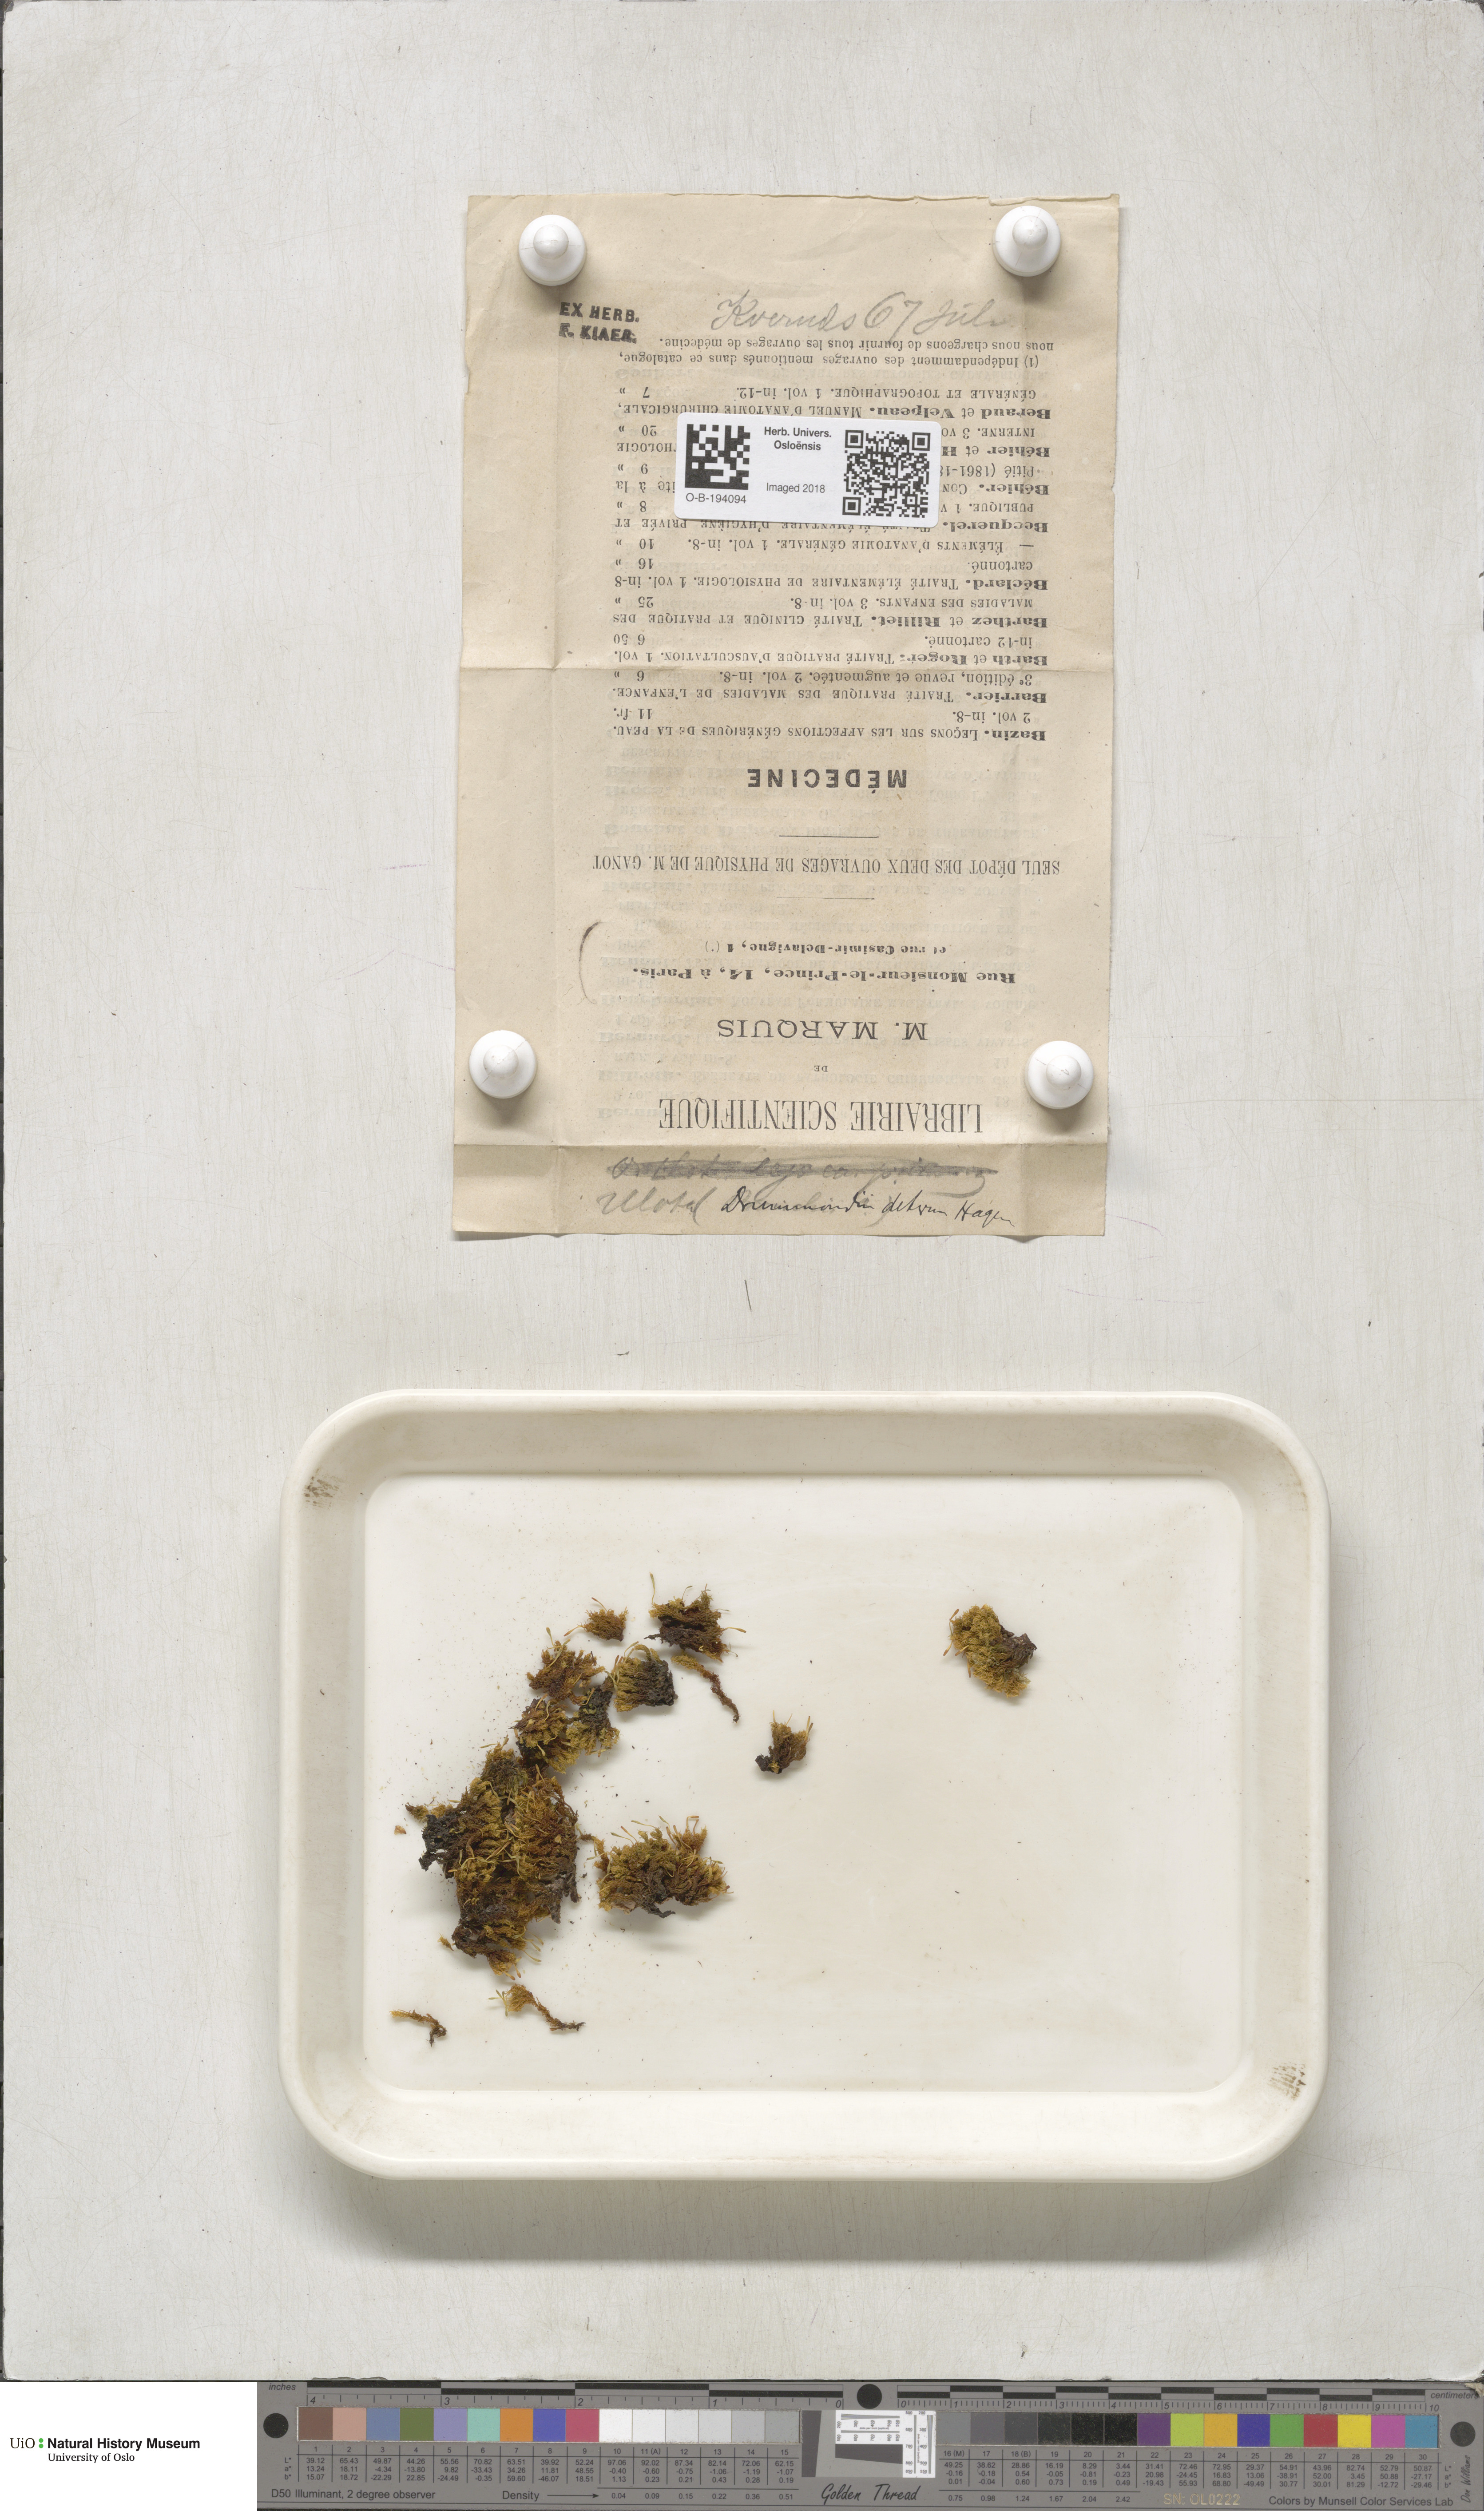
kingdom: Plantae
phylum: Bryophyta
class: Bryopsida
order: Orthotrichales
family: Orthotrichaceae
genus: Ulota
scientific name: Ulota drummondii
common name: Drummond's pincushion moss
